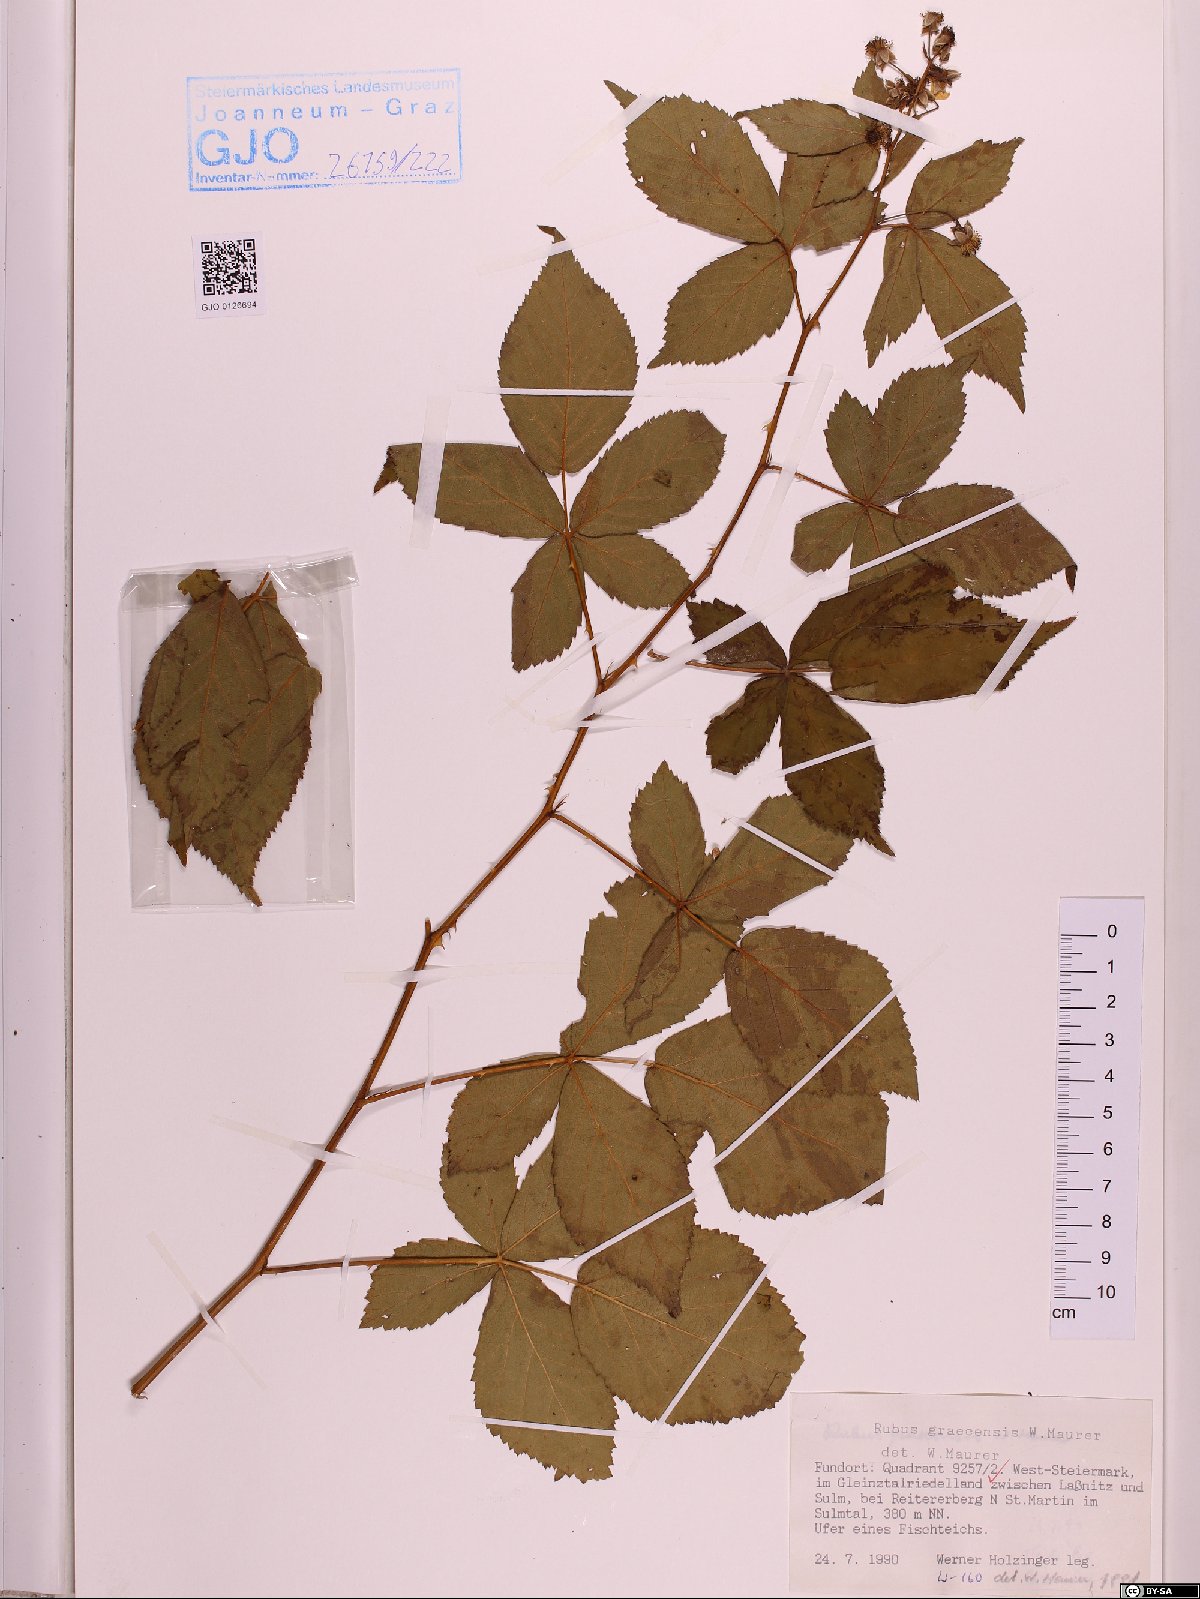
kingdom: Plantae
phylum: Tracheophyta
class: Magnoliopsida
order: Rosales
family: Rosaceae
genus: Rubus
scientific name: Rubus graecensis
